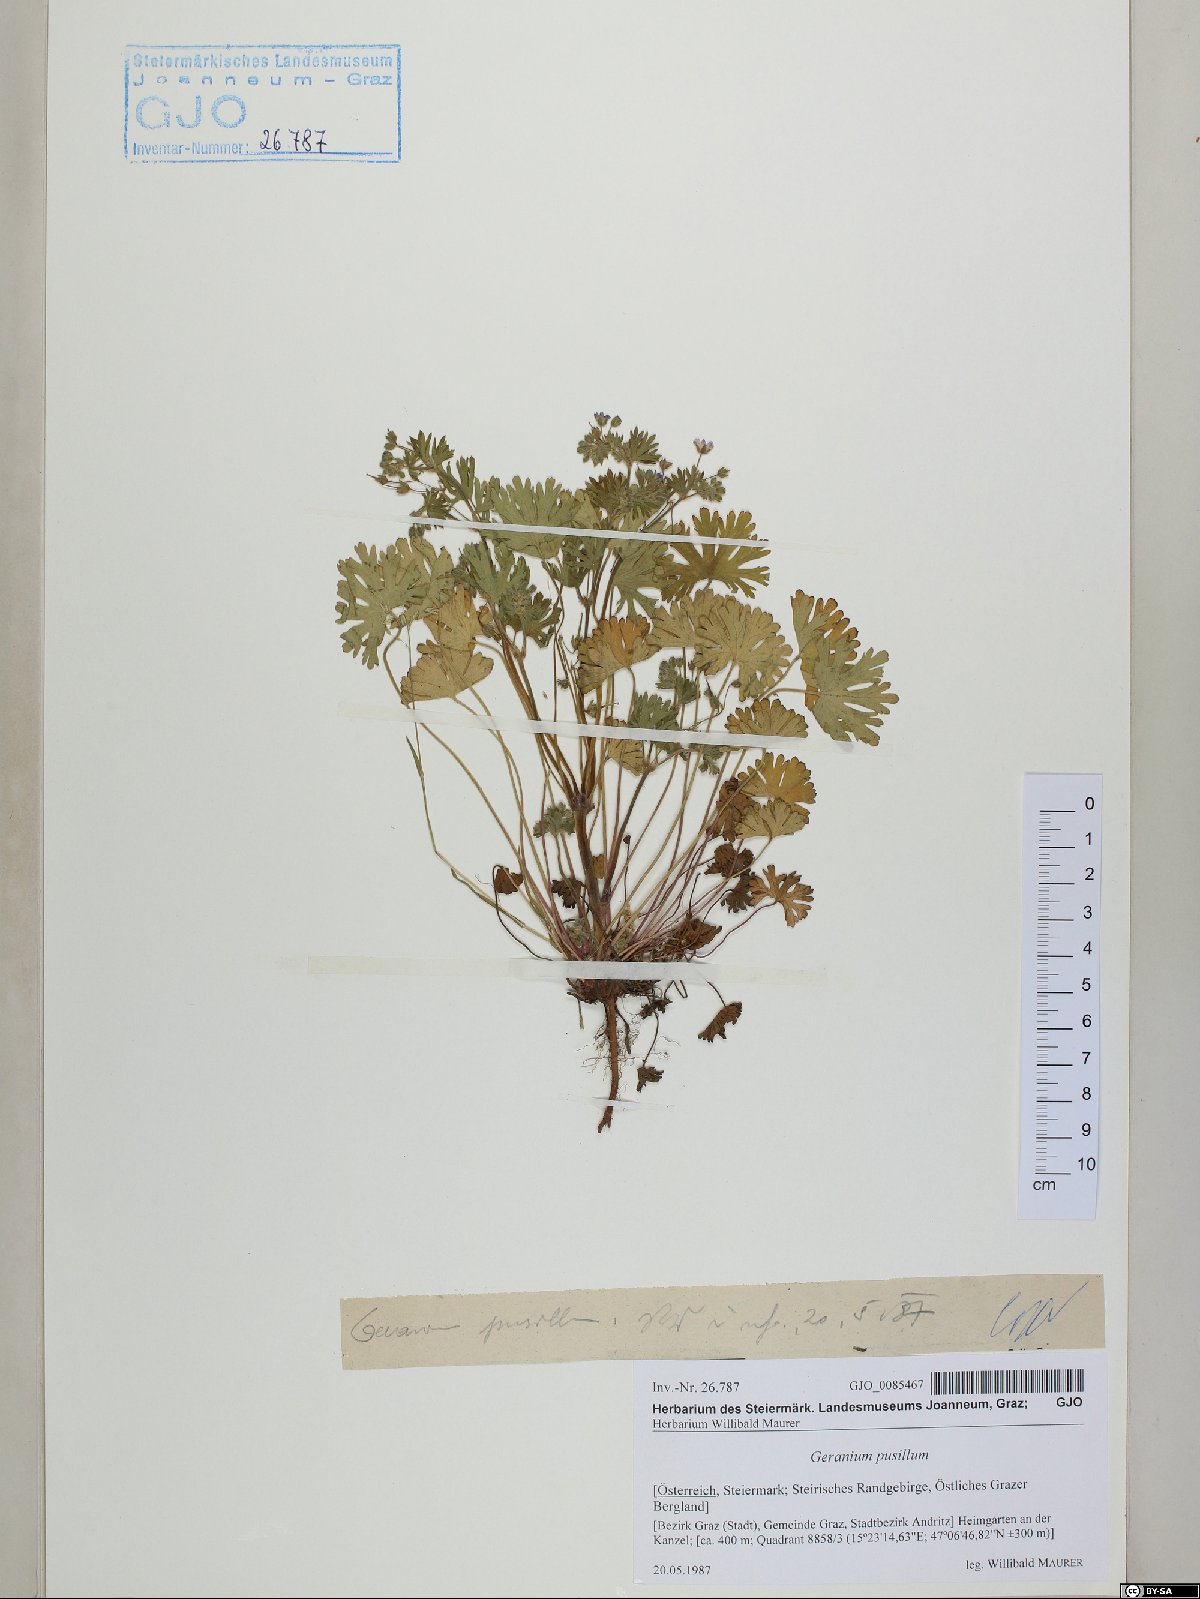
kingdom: Plantae
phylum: Tracheophyta
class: Magnoliopsida
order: Geraniales
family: Geraniaceae
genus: Geranium
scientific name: Geranium pusillum
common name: Small geranium
